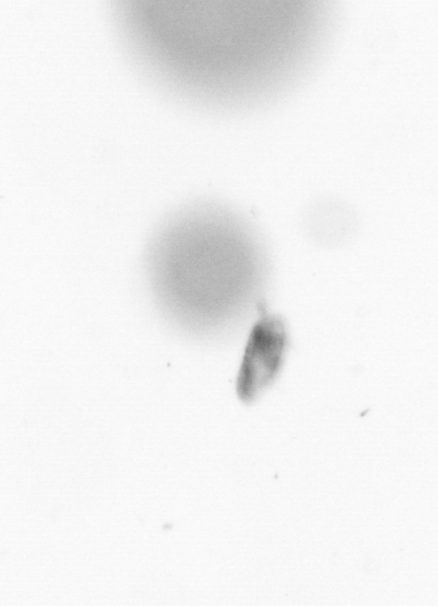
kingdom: Animalia
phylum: Arthropoda
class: Copepoda
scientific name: Copepoda
